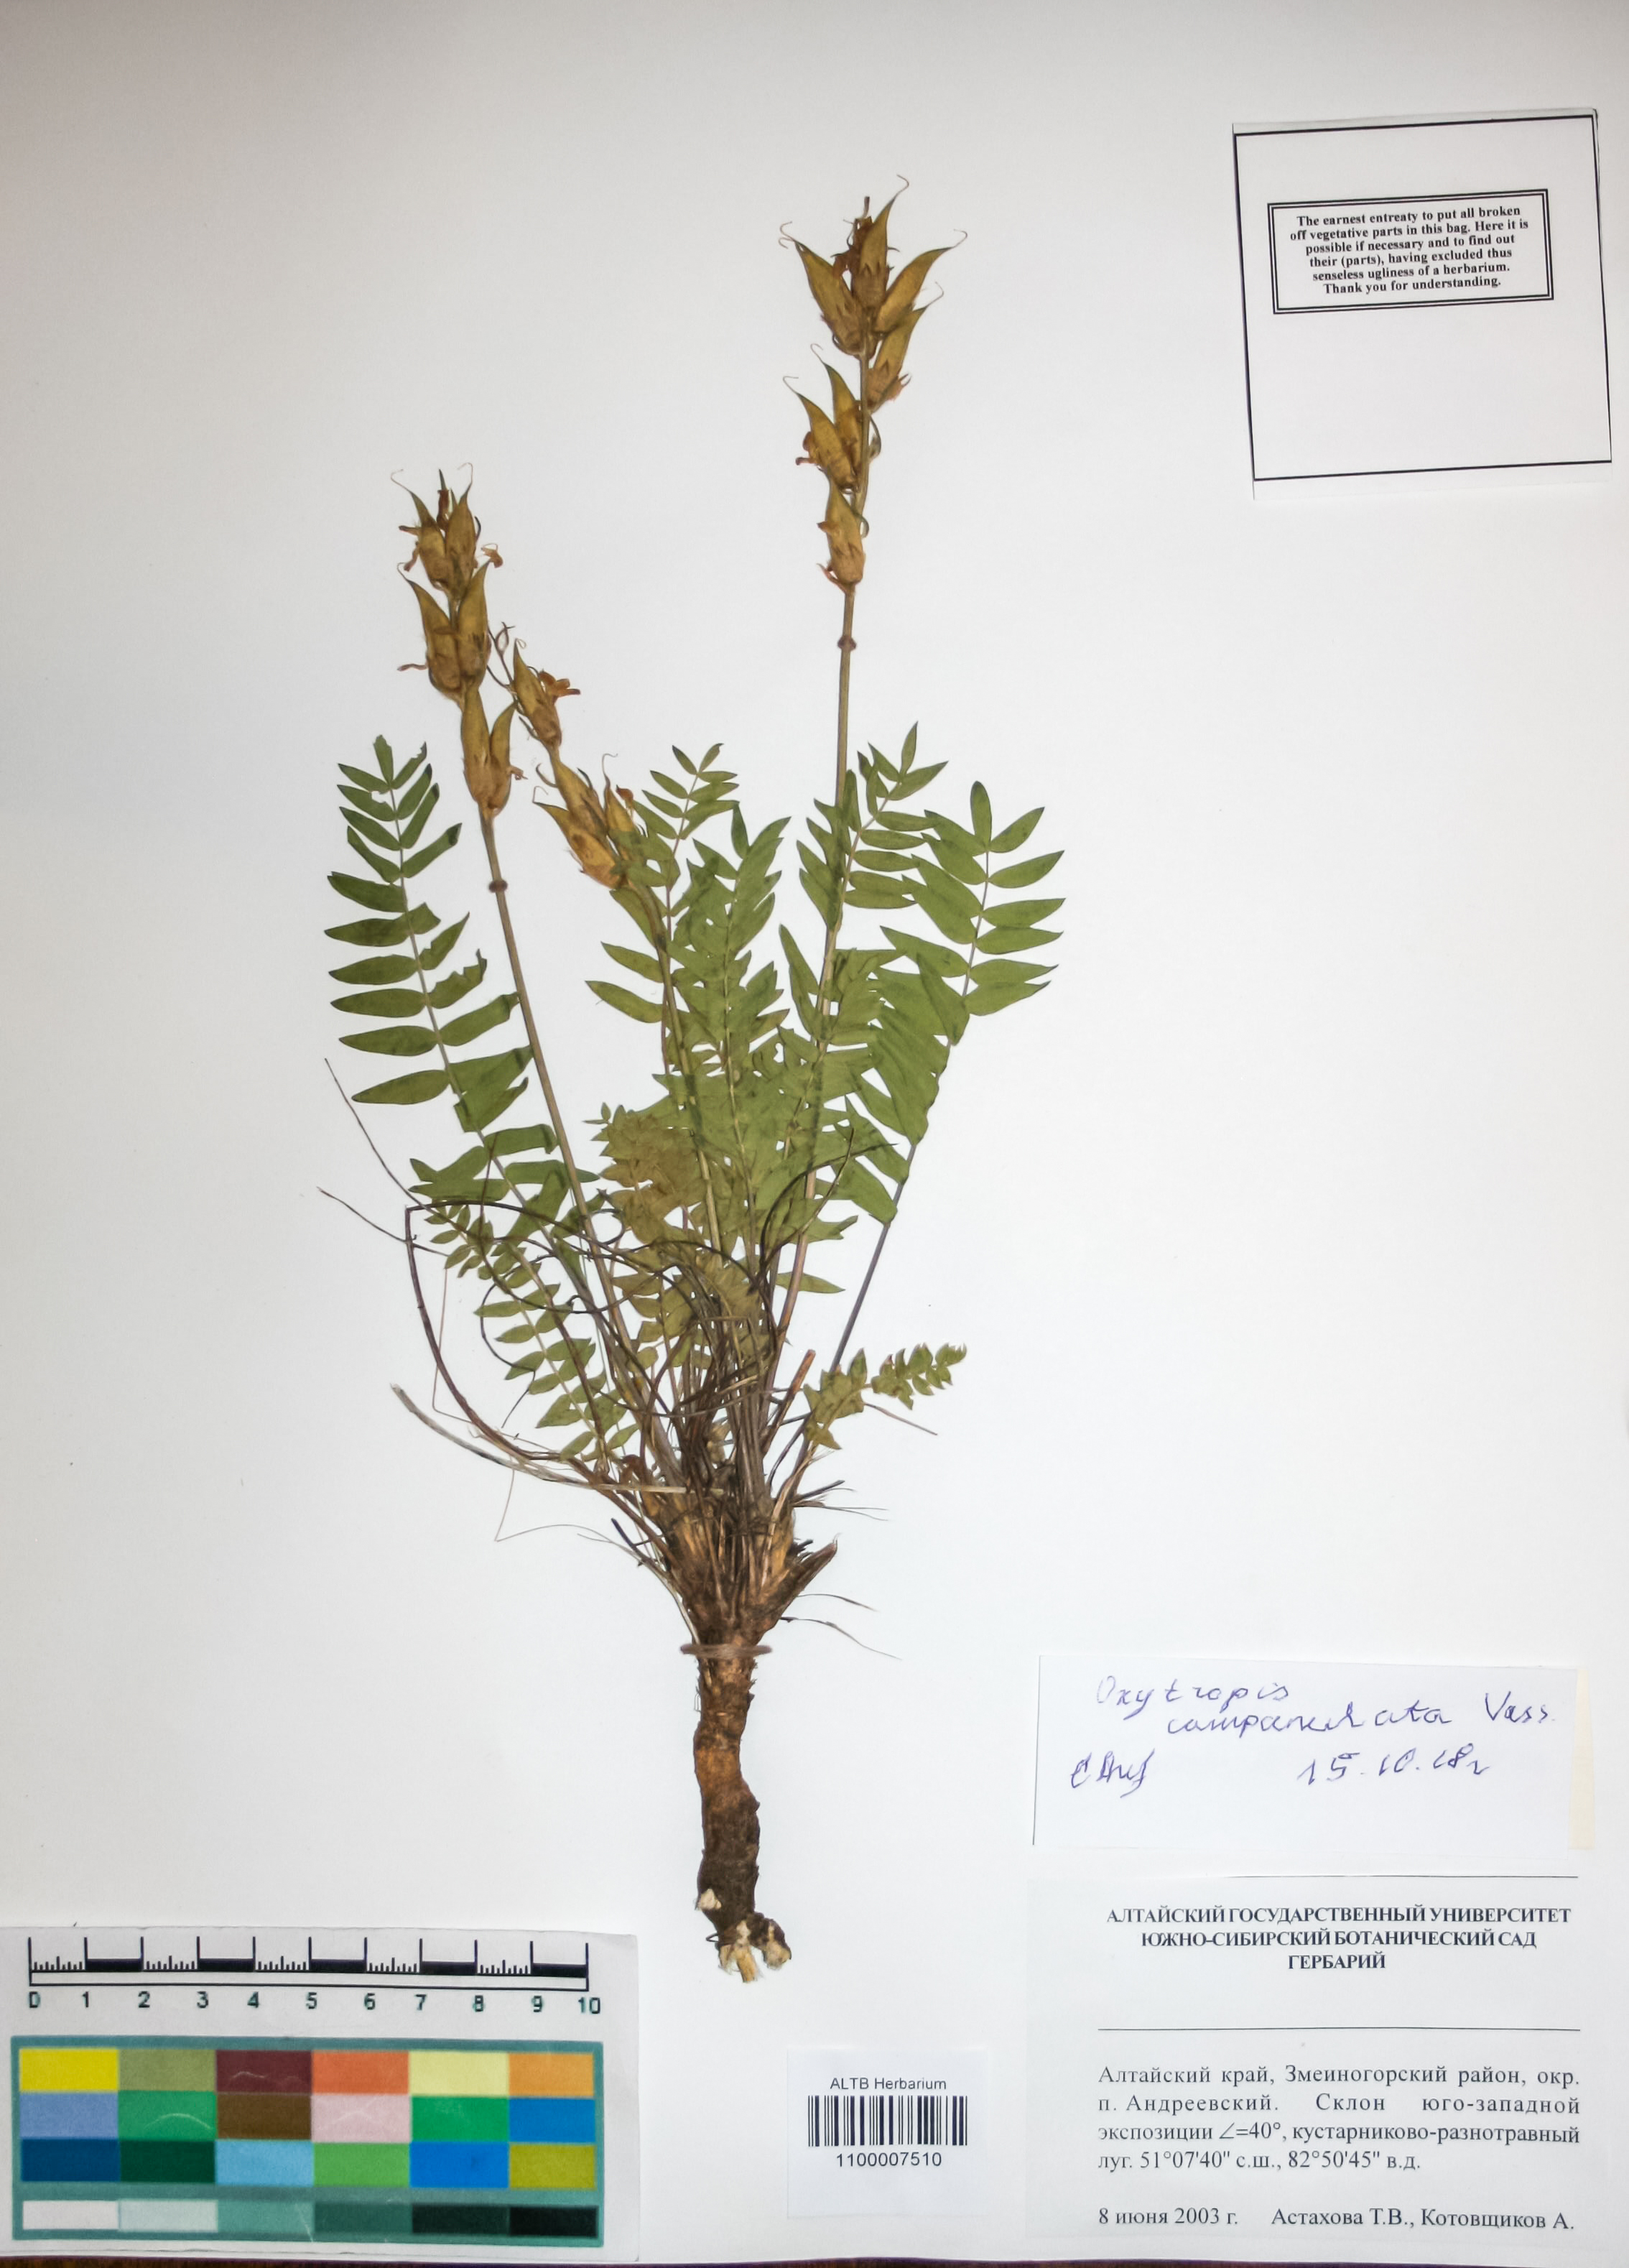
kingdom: Plantae
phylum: Tracheophyta
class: Magnoliopsida
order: Fabales
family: Fabaceae
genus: Oxytropis
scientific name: Oxytropis campanulata
